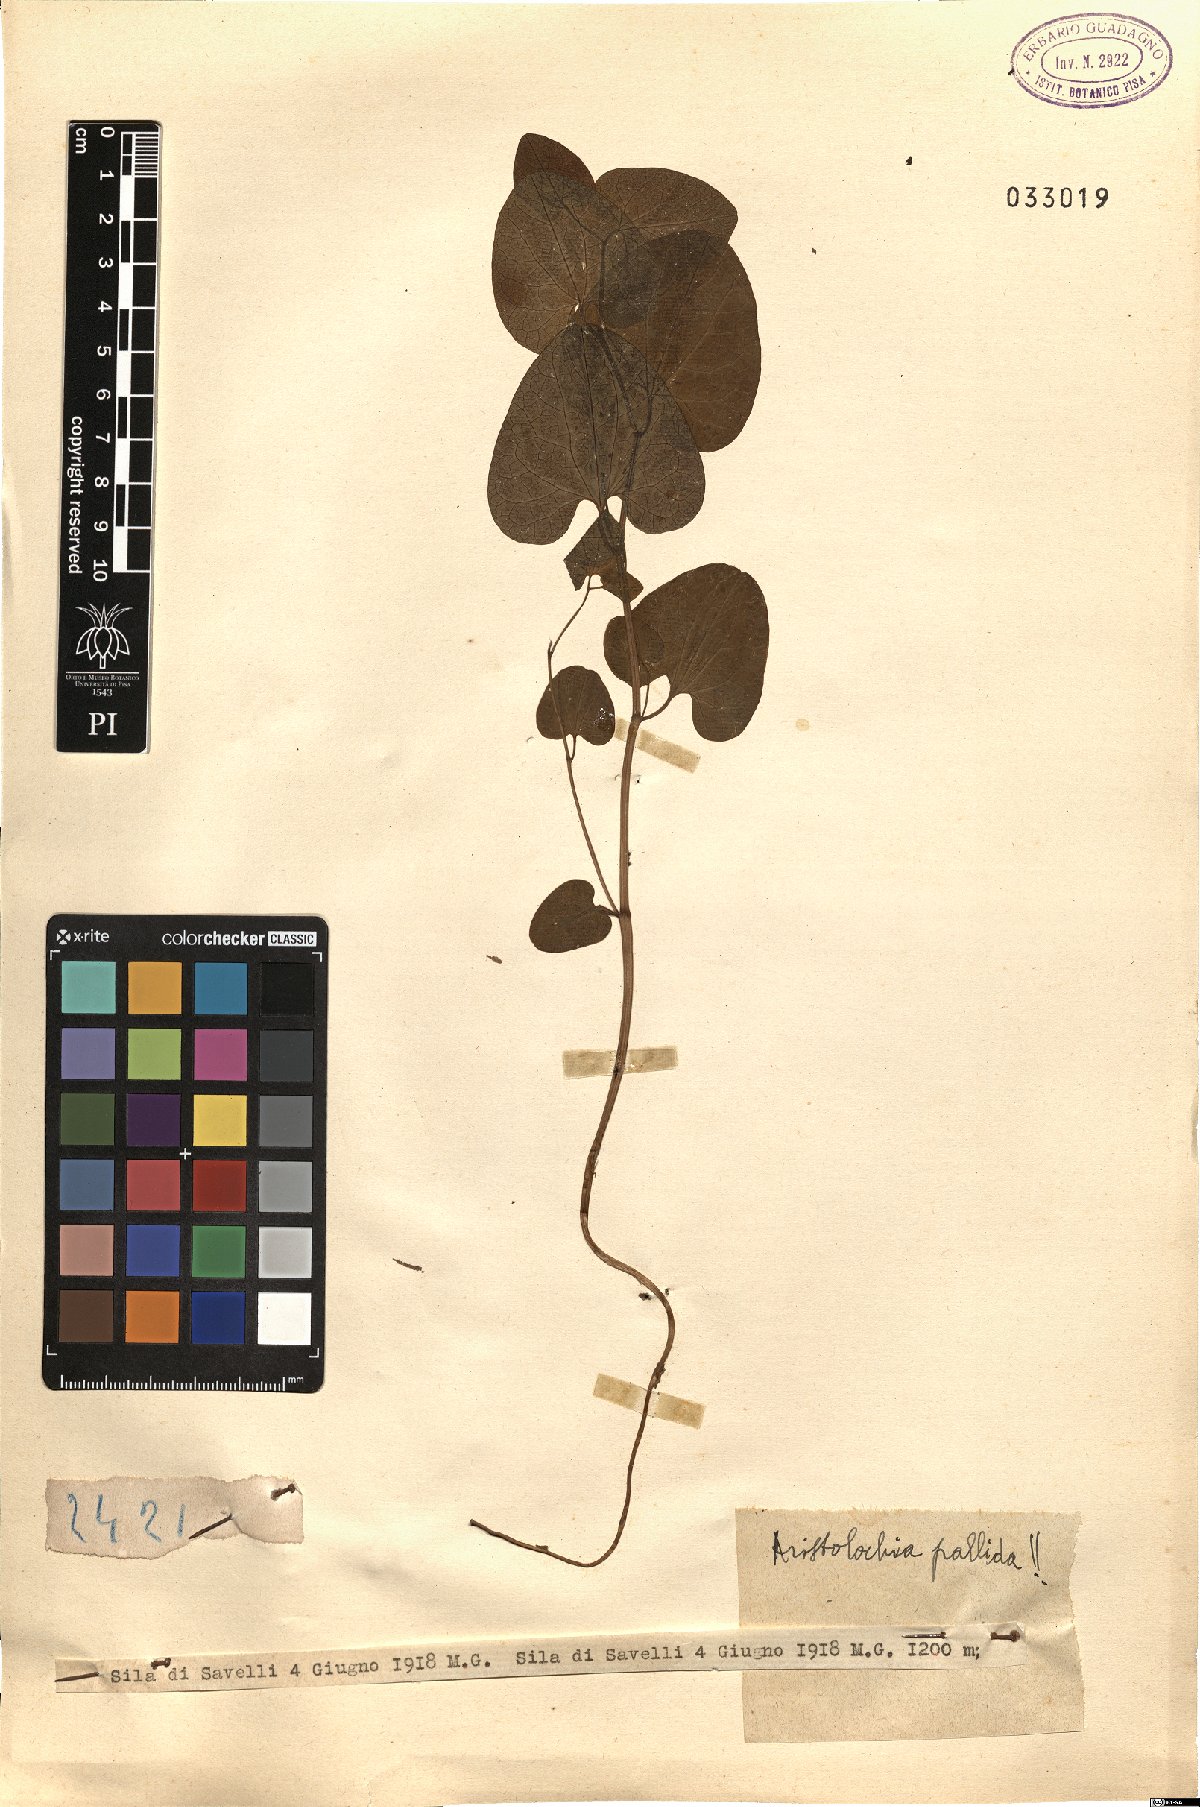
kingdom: Plantae
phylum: Tracheophyta
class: Magnoliopsida
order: Piperales
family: Aristolochiaceae
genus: Aristolochia
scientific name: Aristolochia pallida
